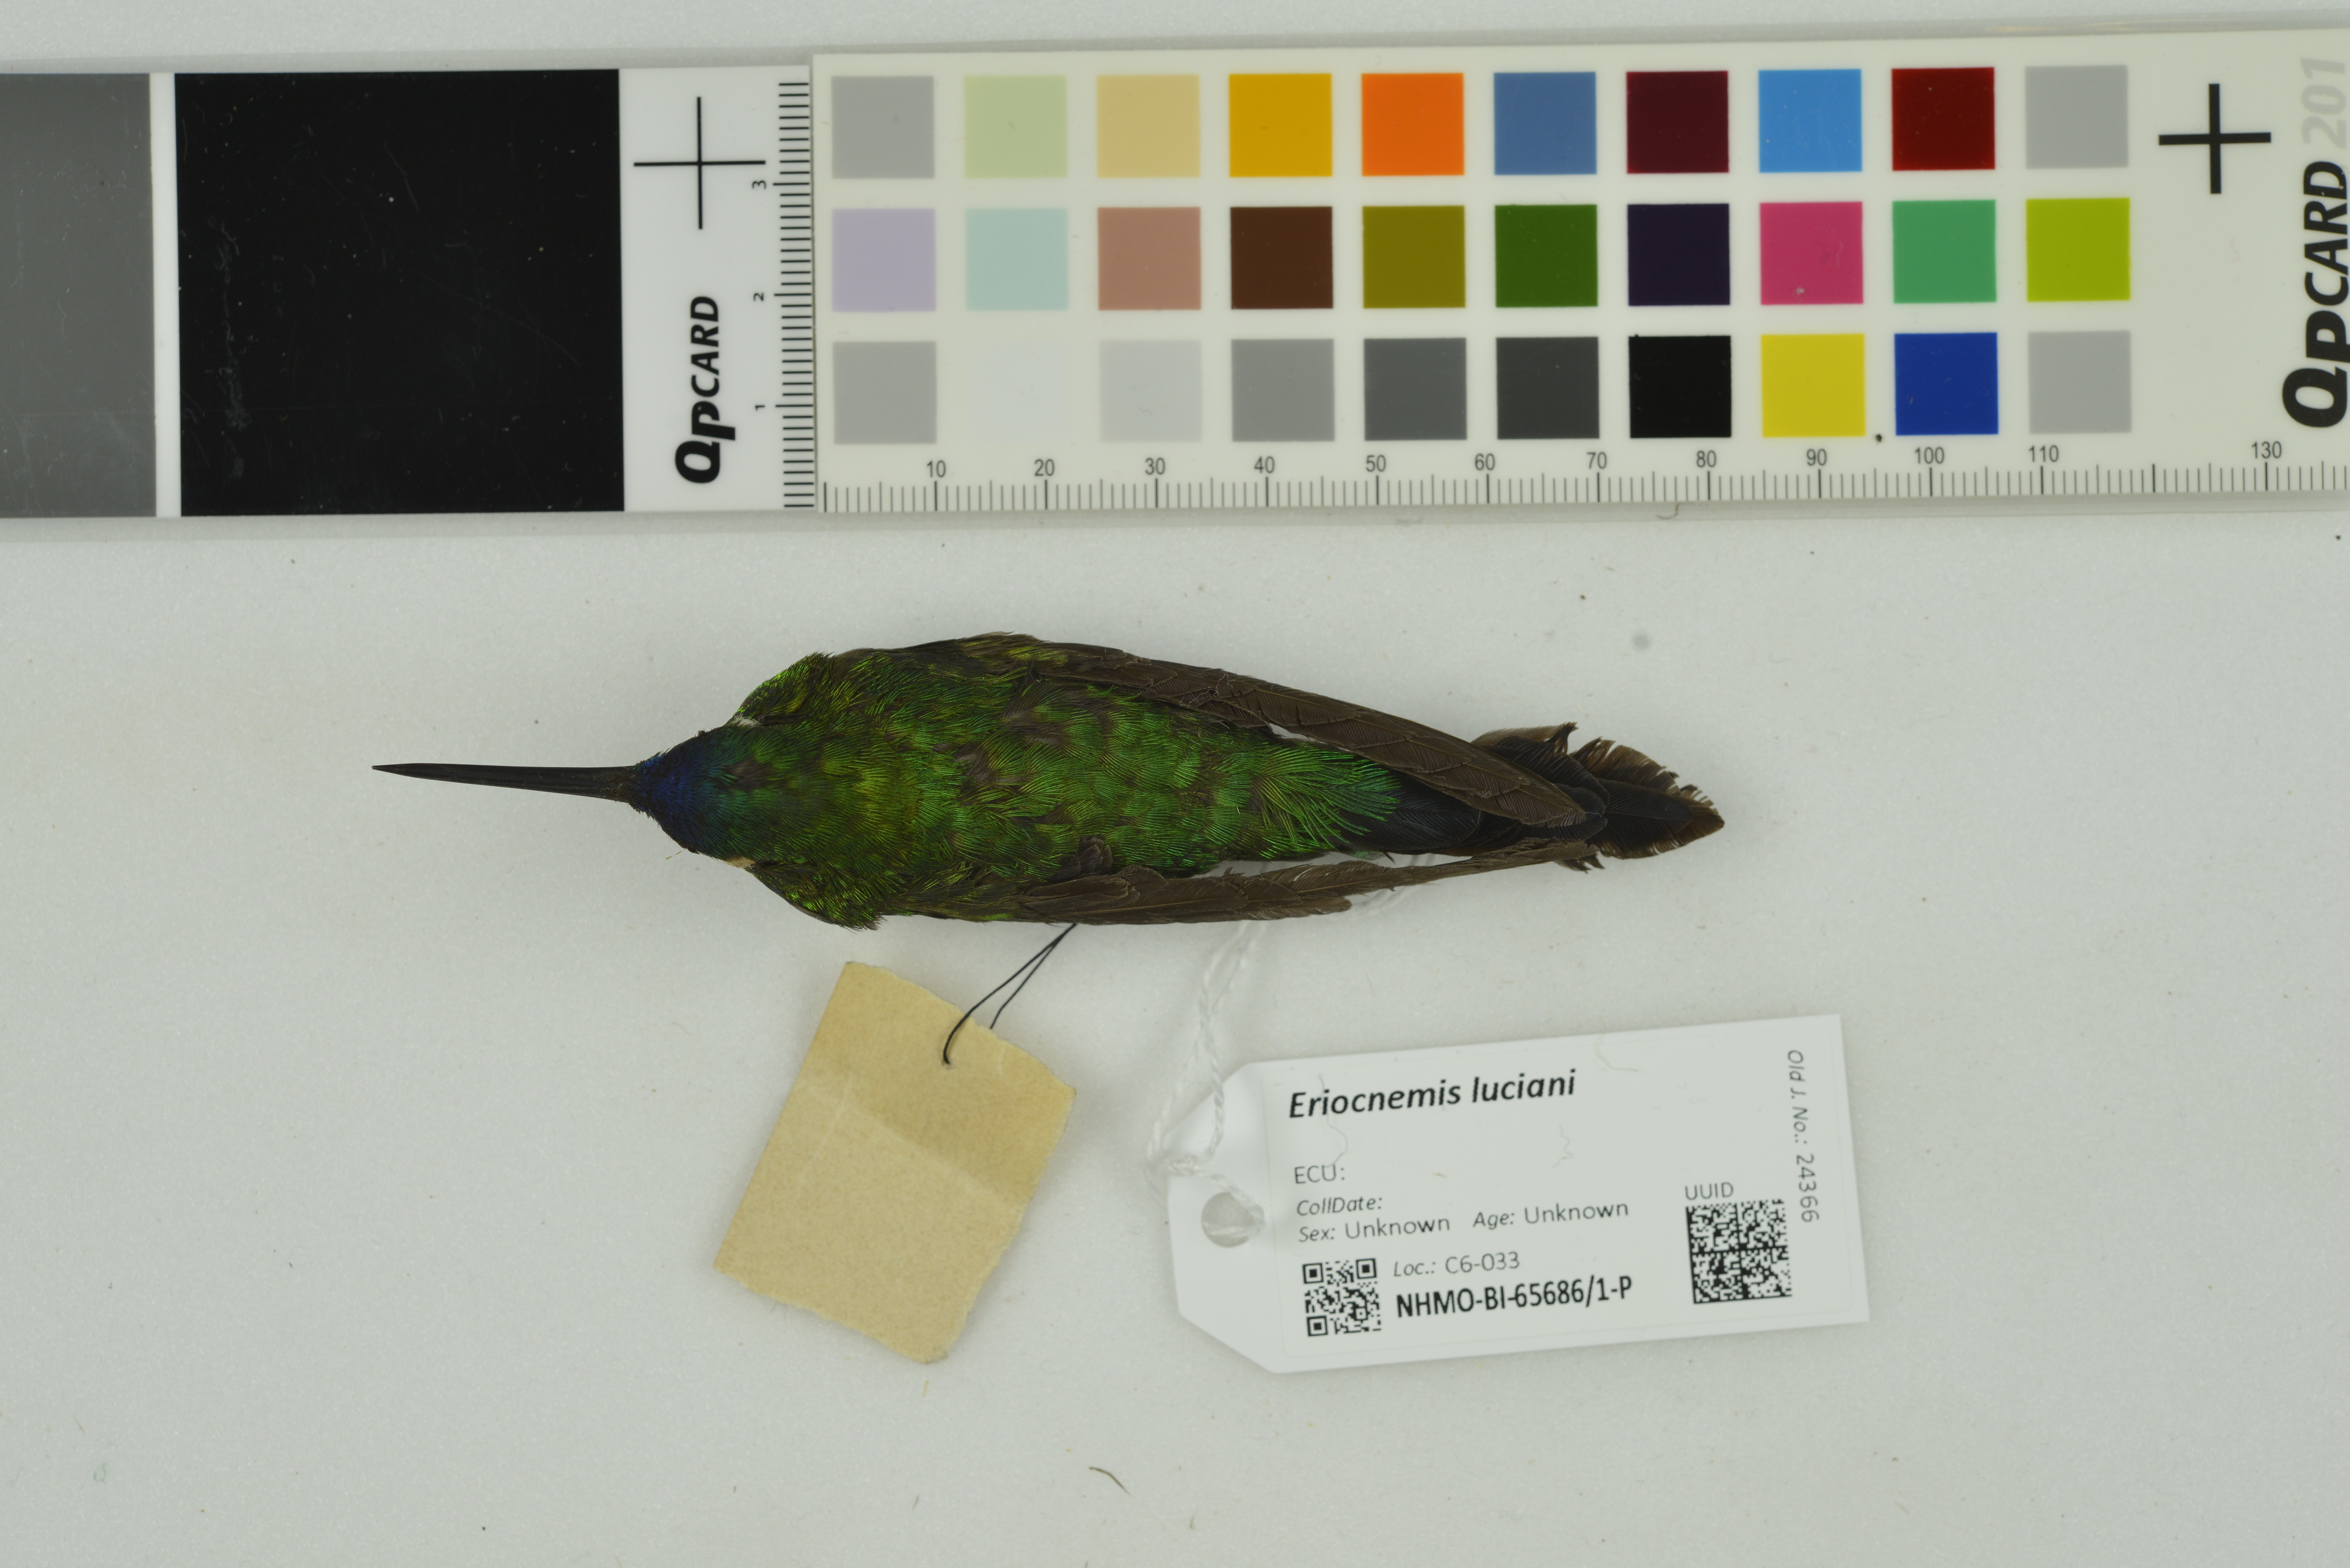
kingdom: Animalia
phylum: Chordata
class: Aves
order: Apodiformes
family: Trochilidae
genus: Eriocnemis
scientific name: Eriocnemis luciani
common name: Sapphire-vented puffleg
